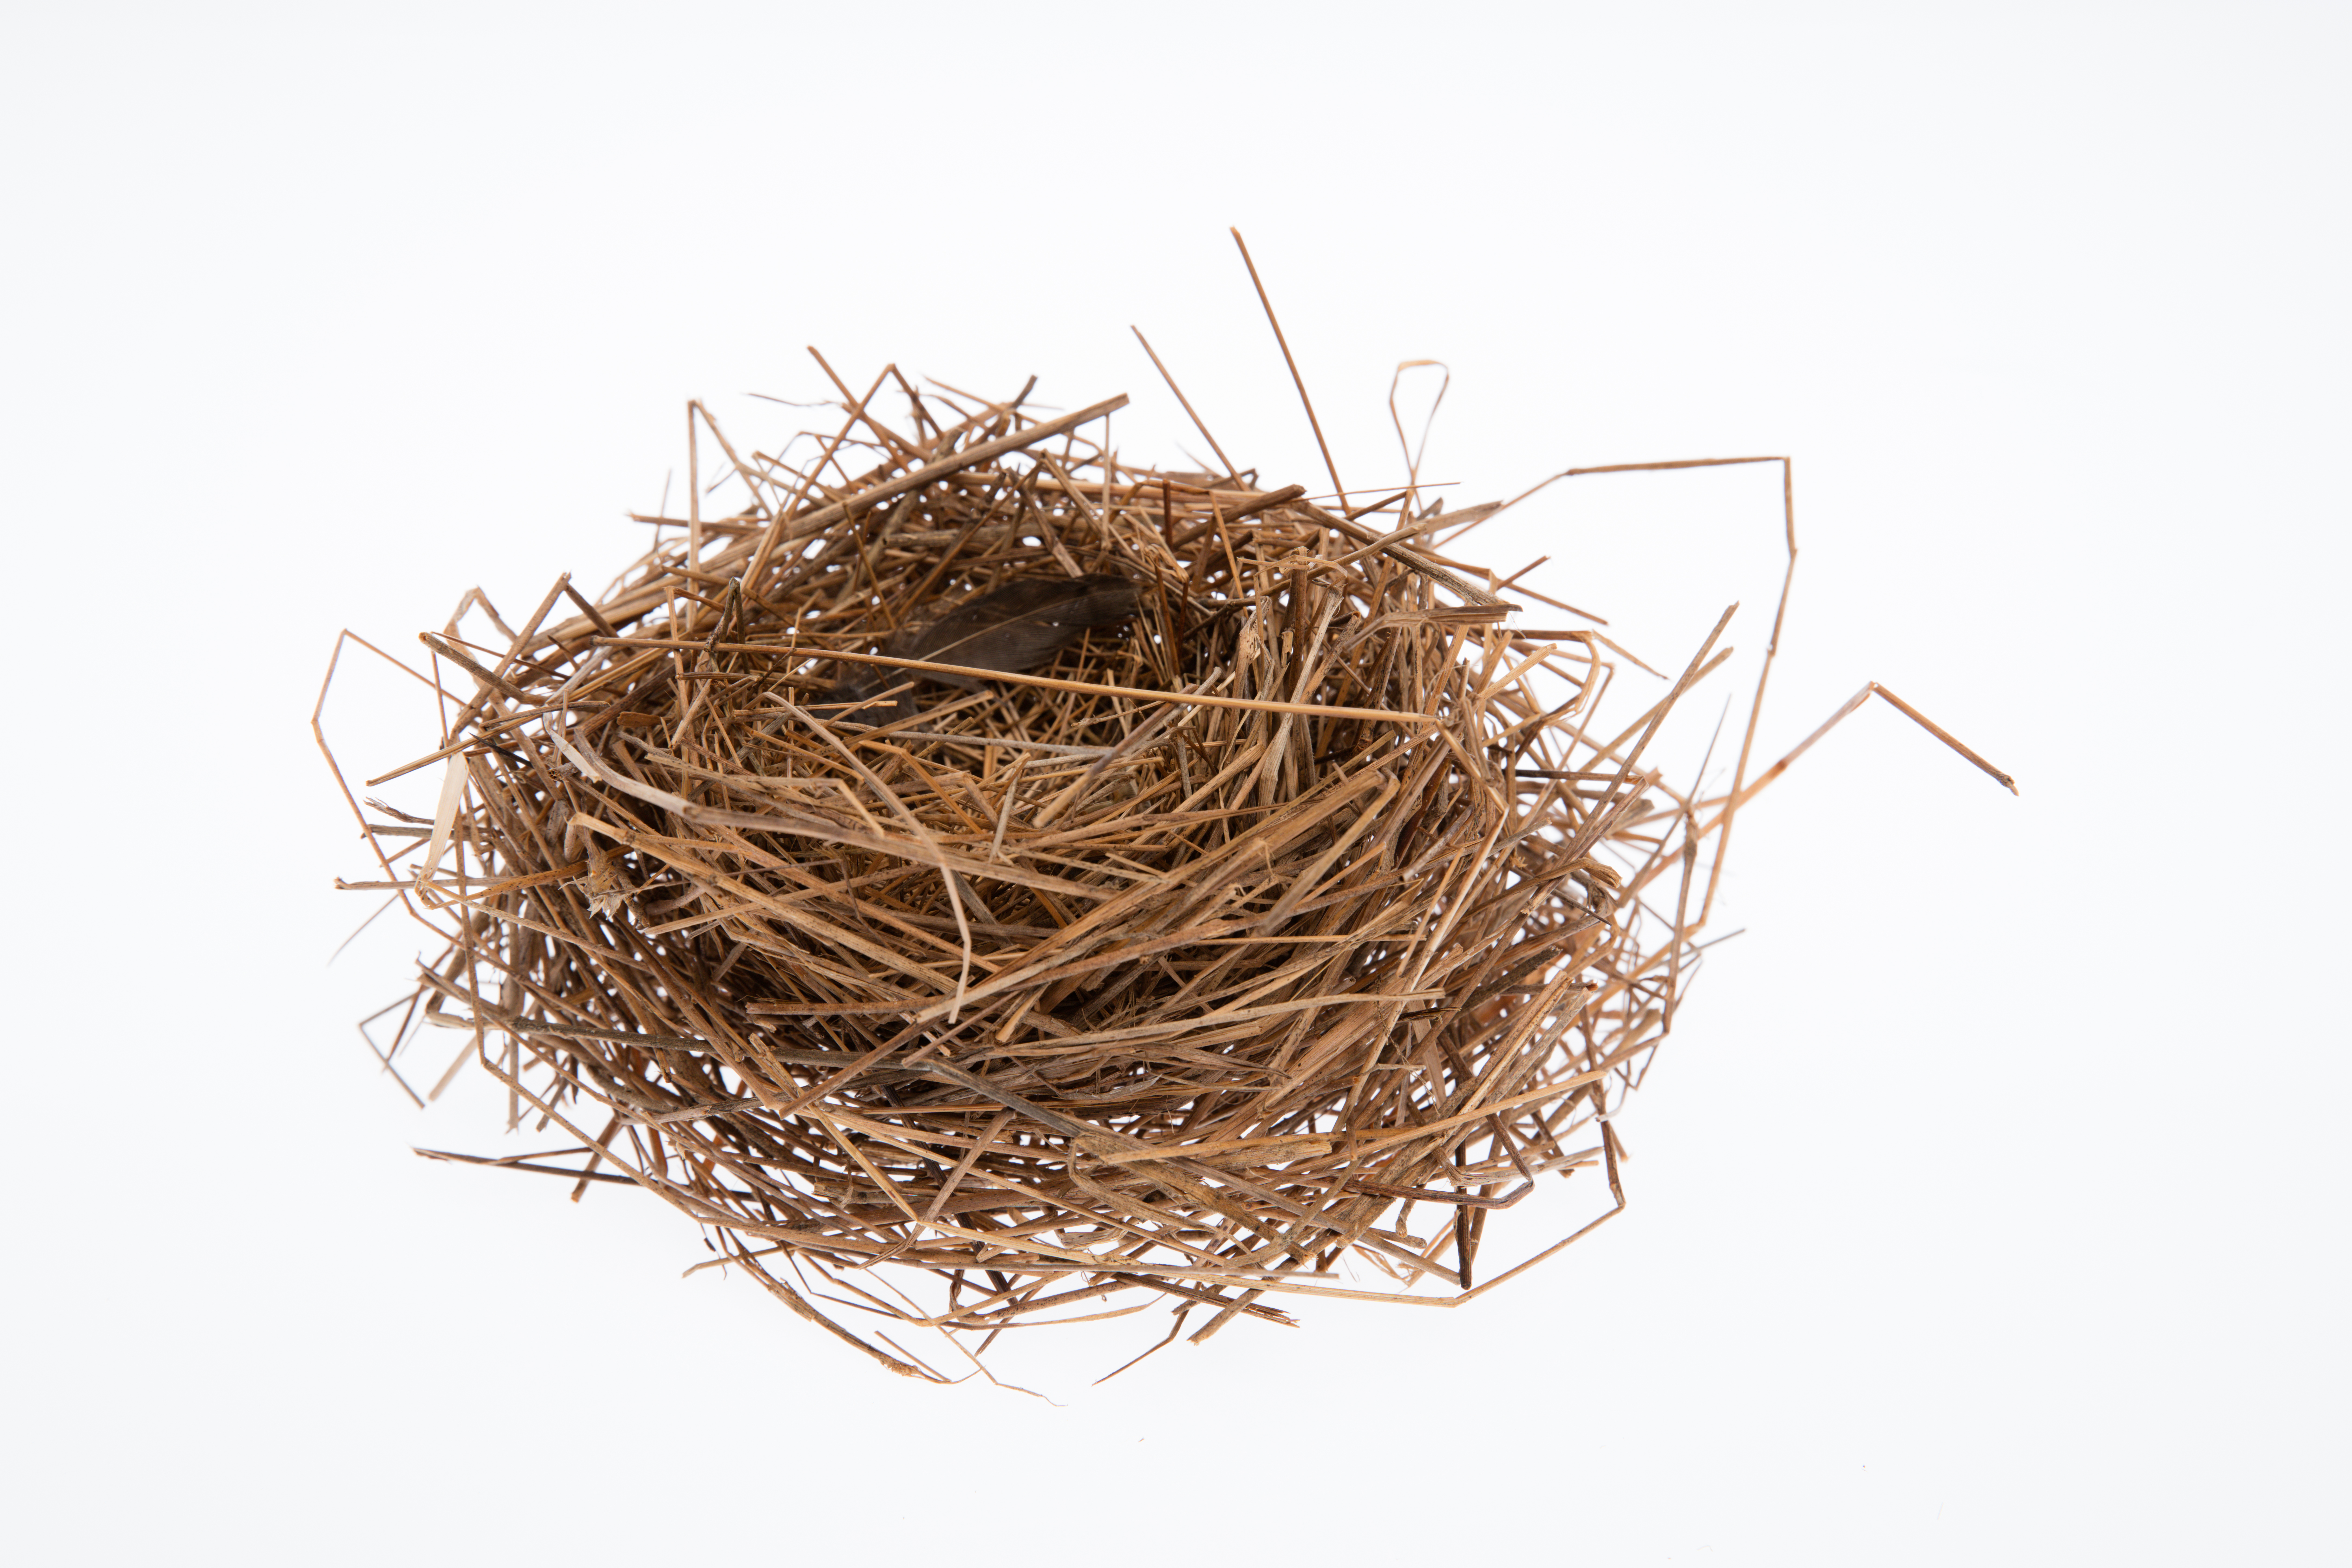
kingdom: Animalia
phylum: Chordata
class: Aves
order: Passeriformes
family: Locustellidae
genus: Megalurus
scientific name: Megalurus punctatus
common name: New zealand fernbird
